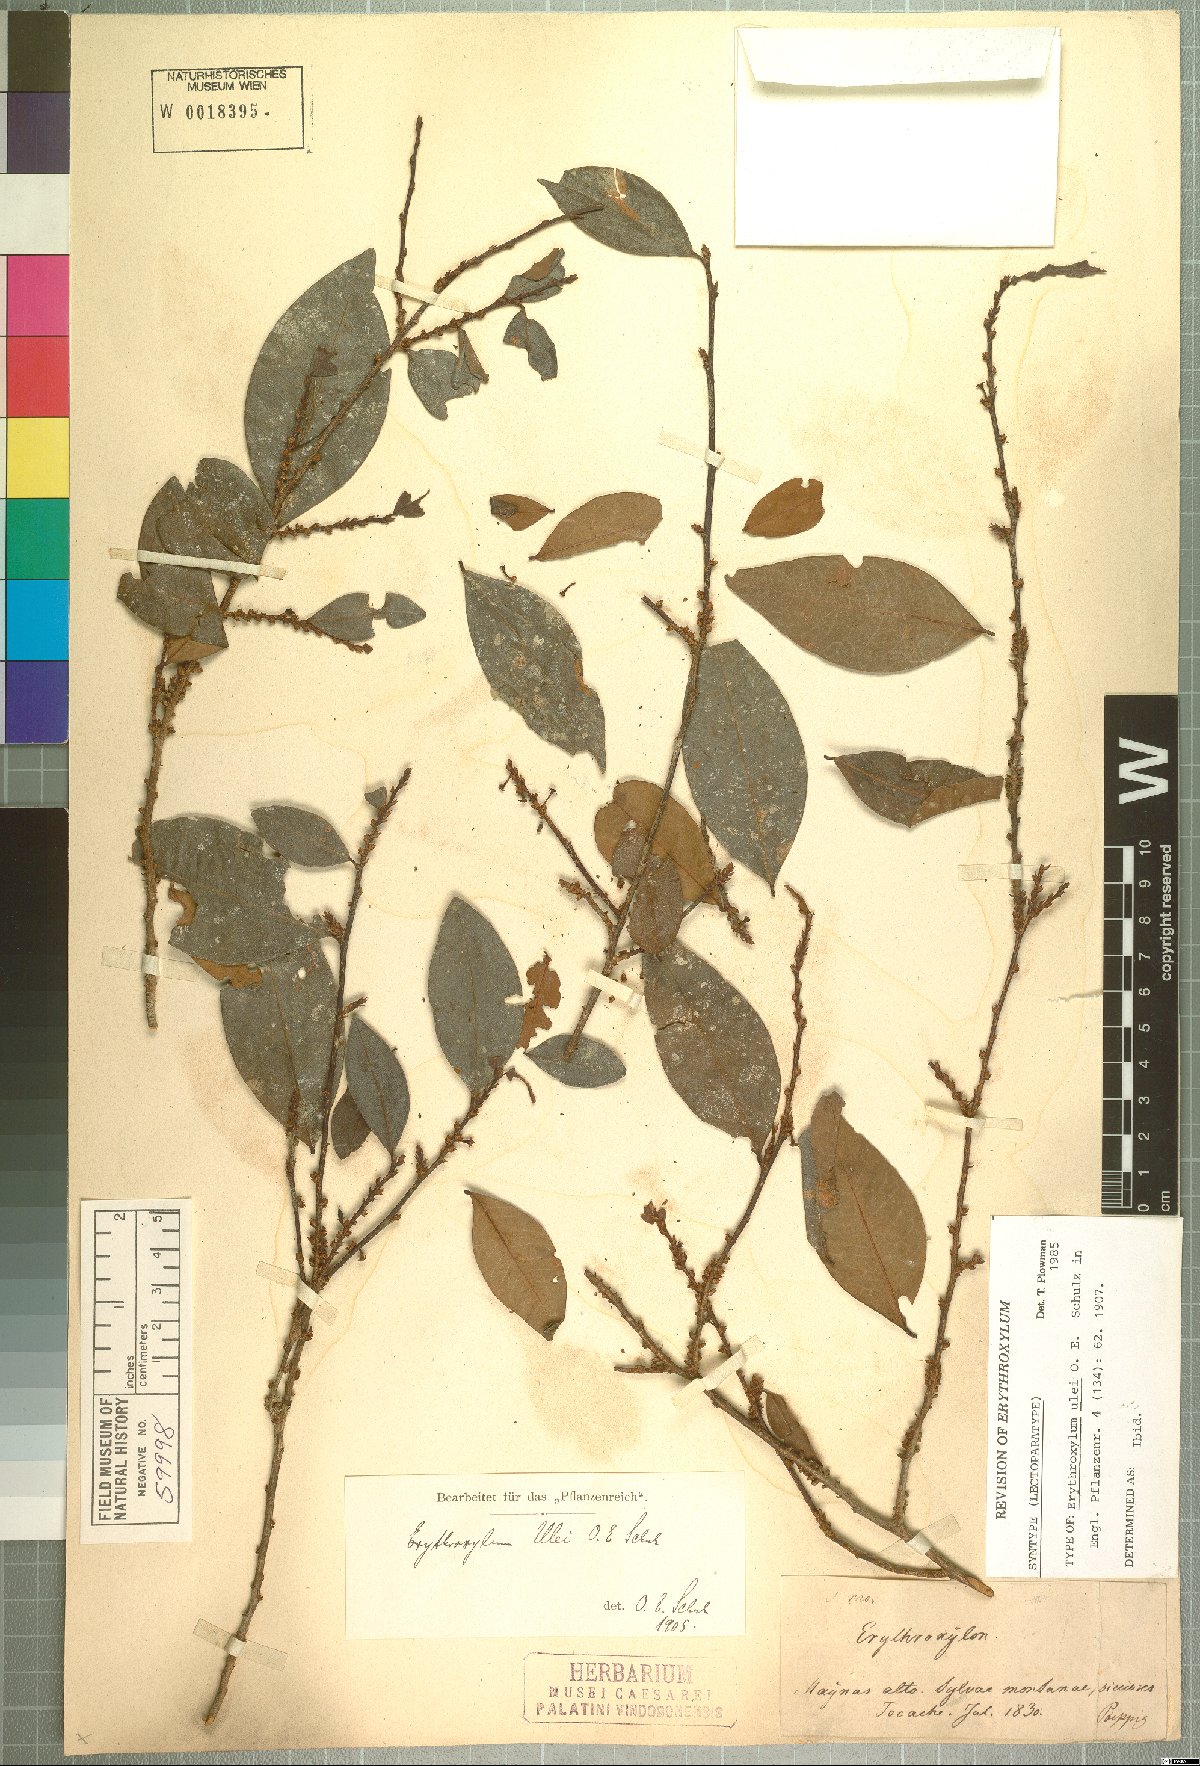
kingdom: Plantae
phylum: Tracheophyta
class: Magnoliopsida
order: Malpighiales
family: Erythroxylaceae
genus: Erythroxylum
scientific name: Erythroxylum ulei
